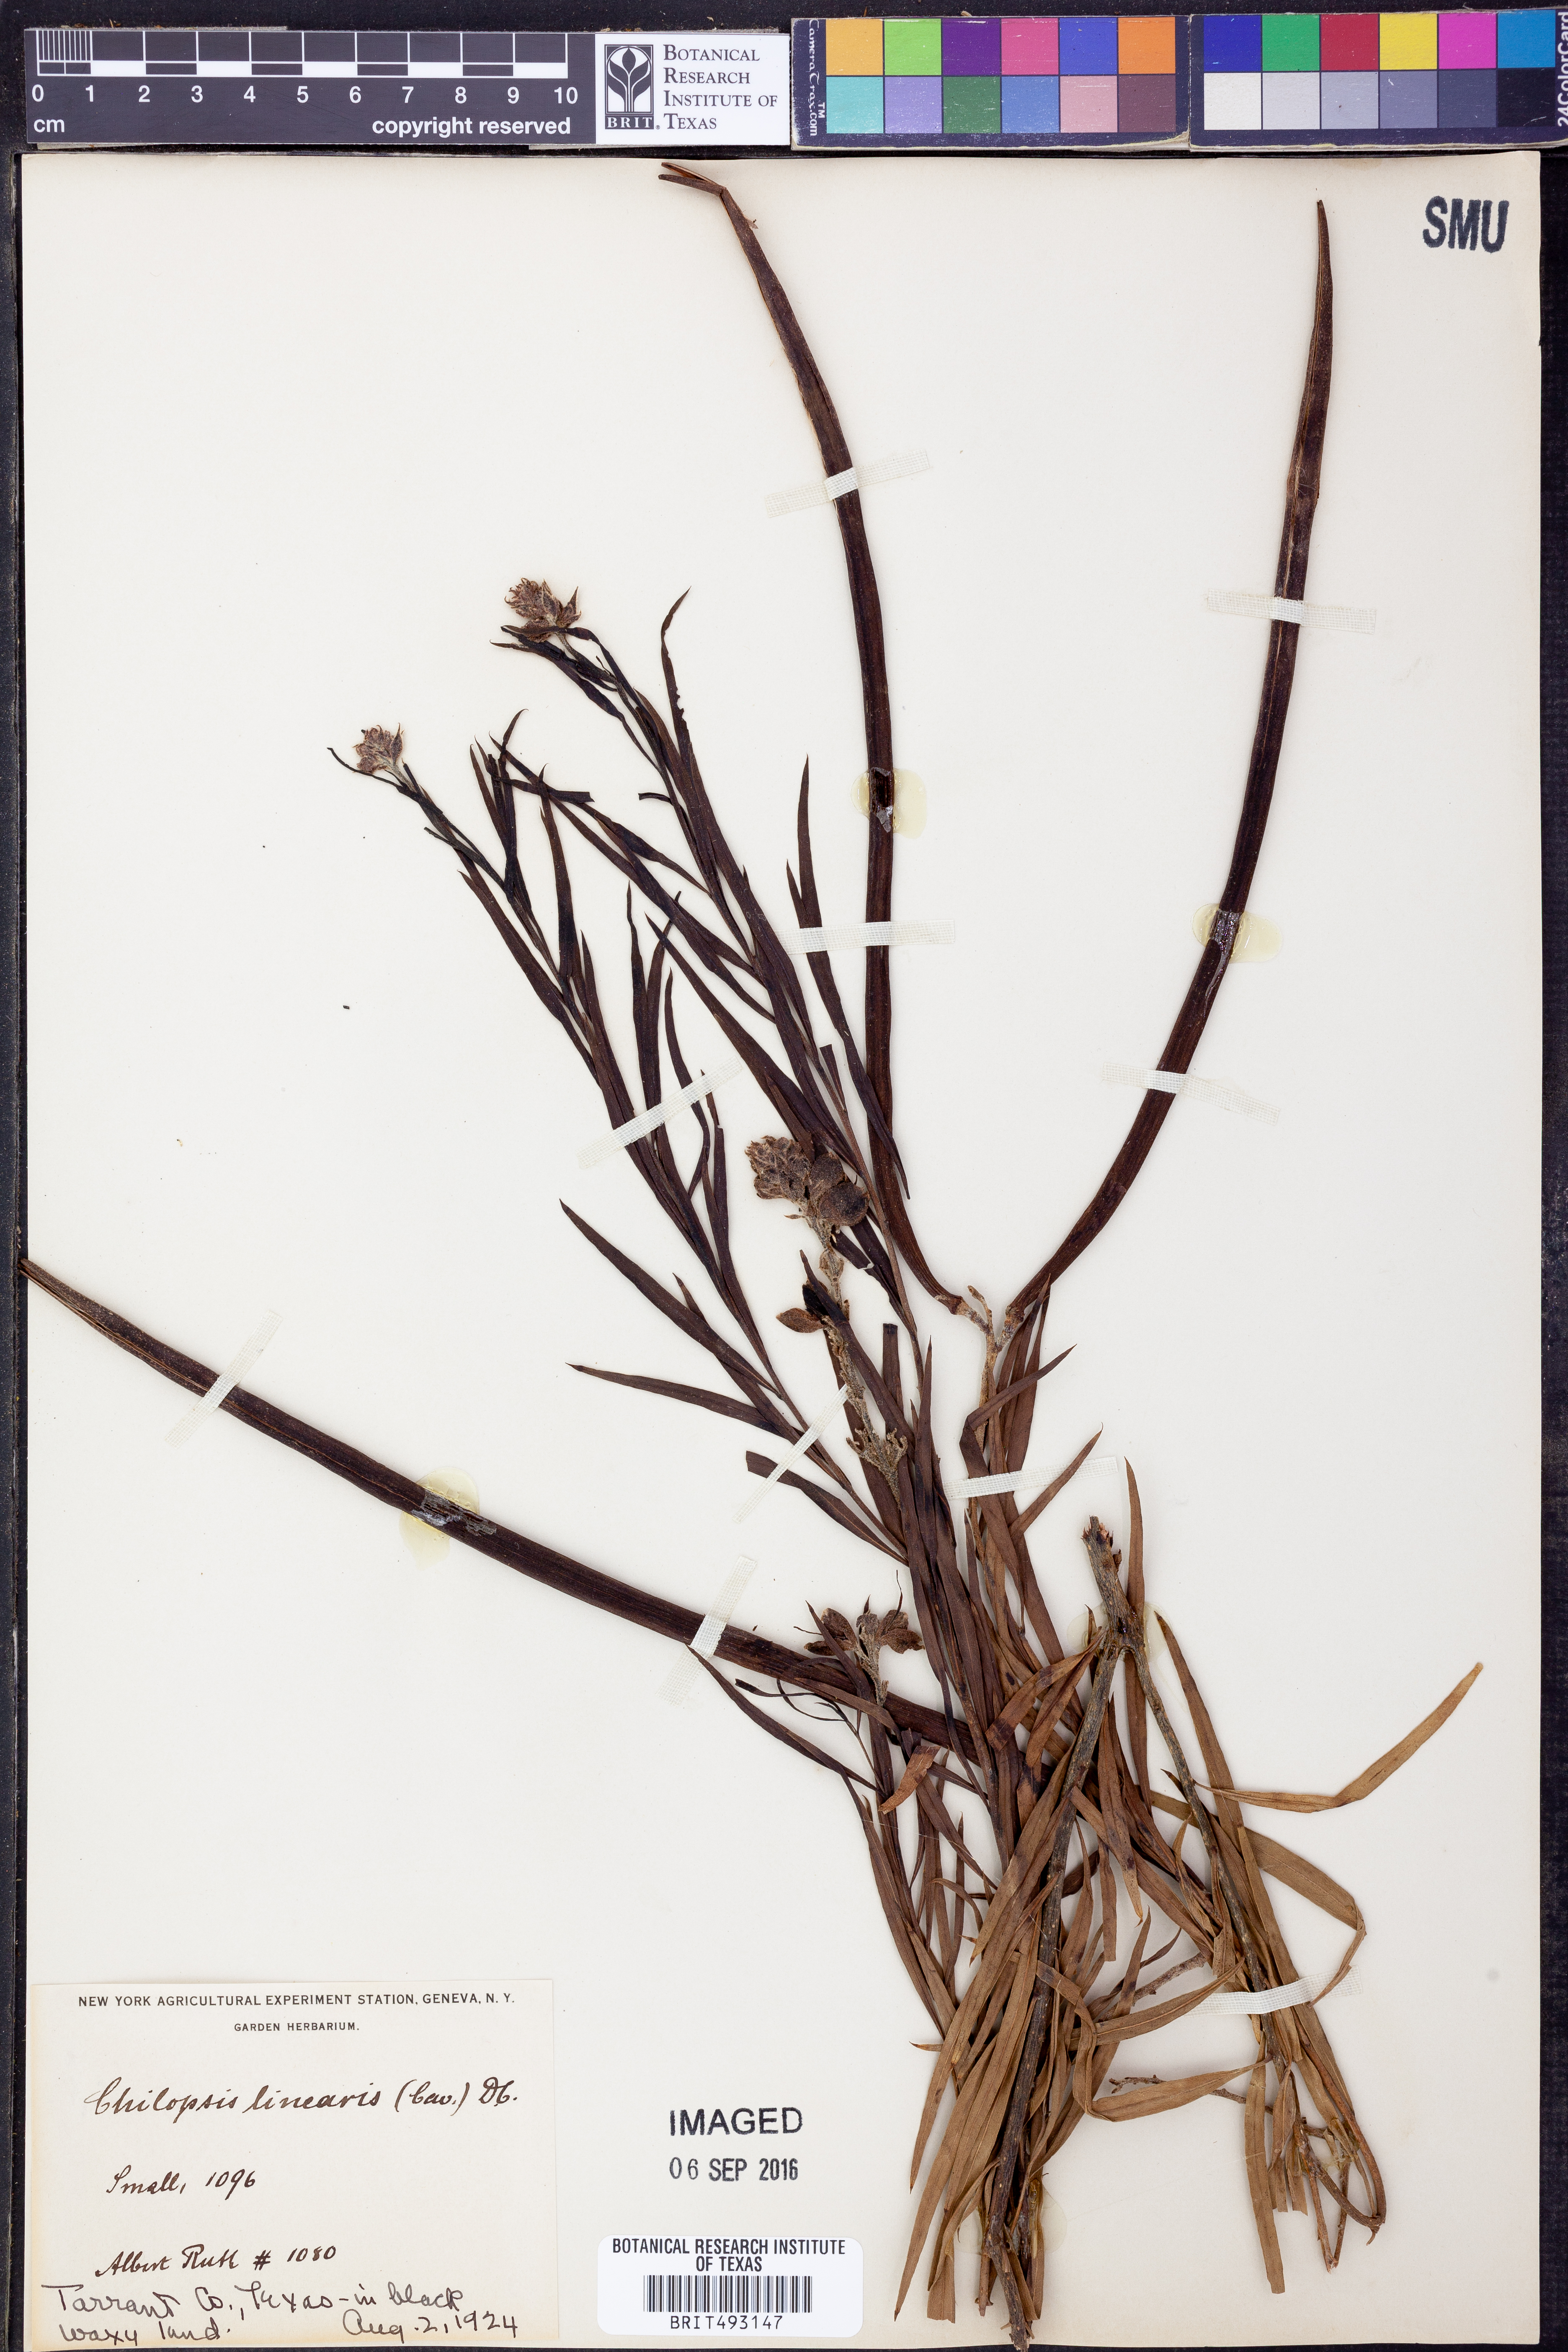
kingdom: Plantae
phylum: Tracheophyta
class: Magnoliopsida
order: Lamiales
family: Bignoniaceae
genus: Chilopsis
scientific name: Chilopsis linearis
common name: Desert-willow
